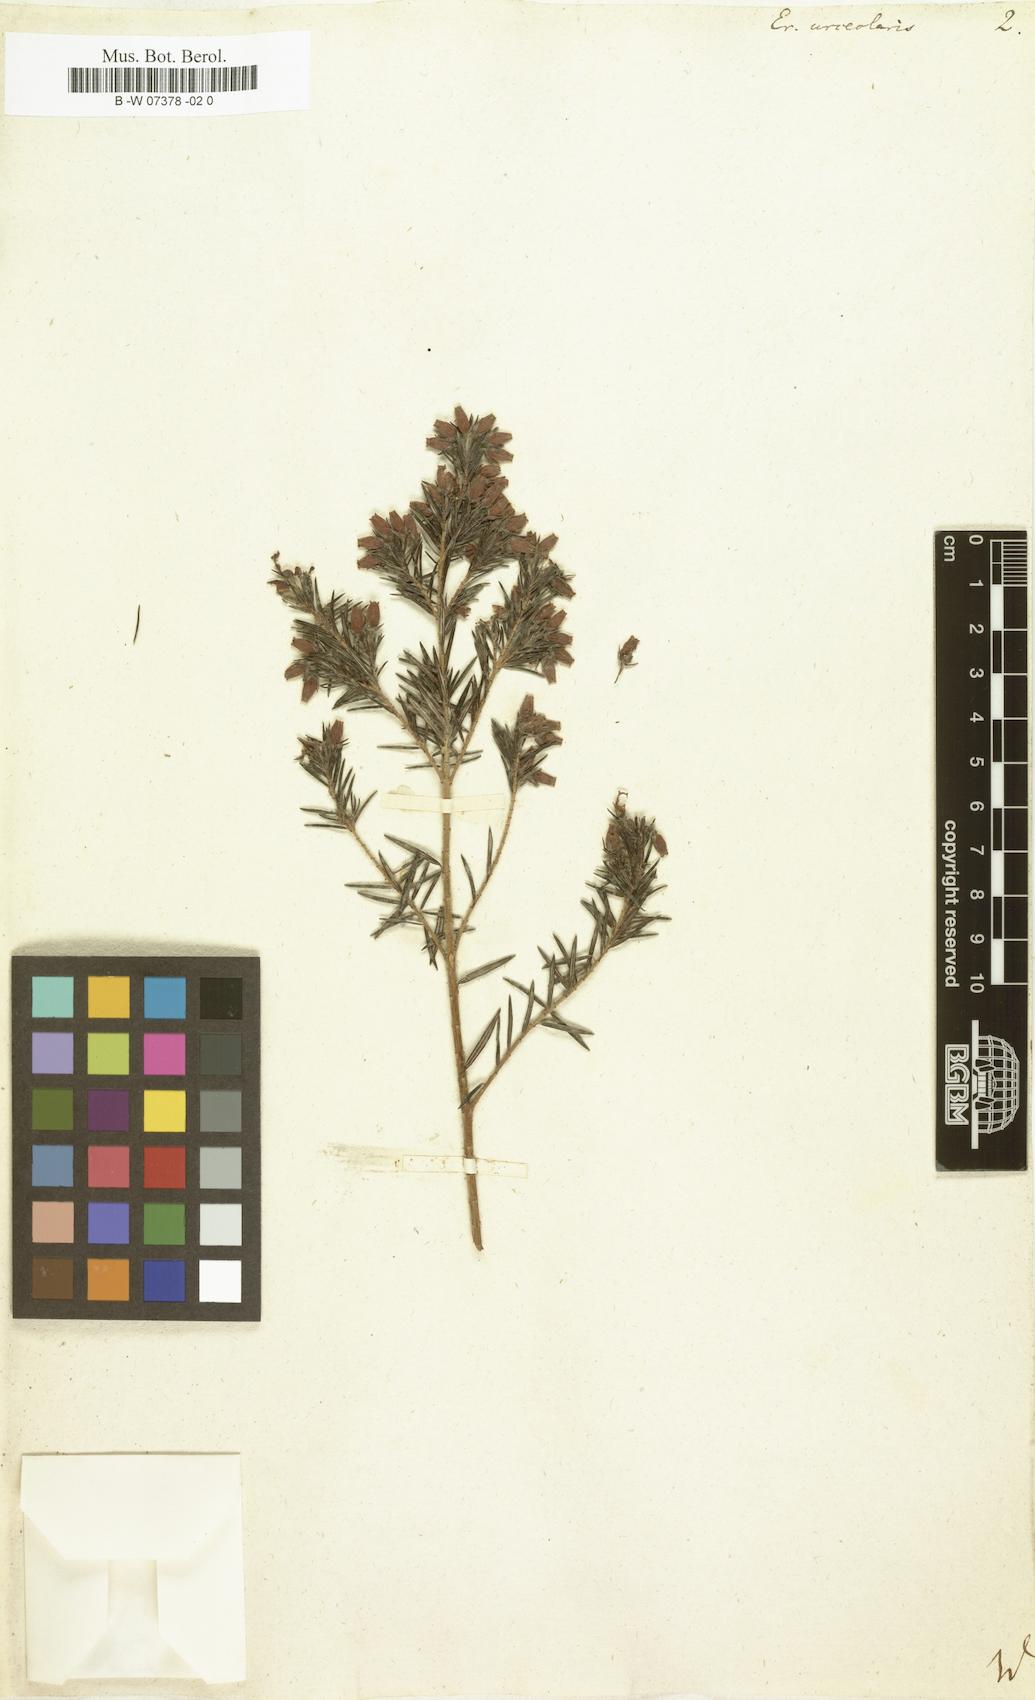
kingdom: Plantae
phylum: Tracheophyta
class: Magnoliopsida
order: Ericales
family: Ericaceae
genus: Erica
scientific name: Erica
